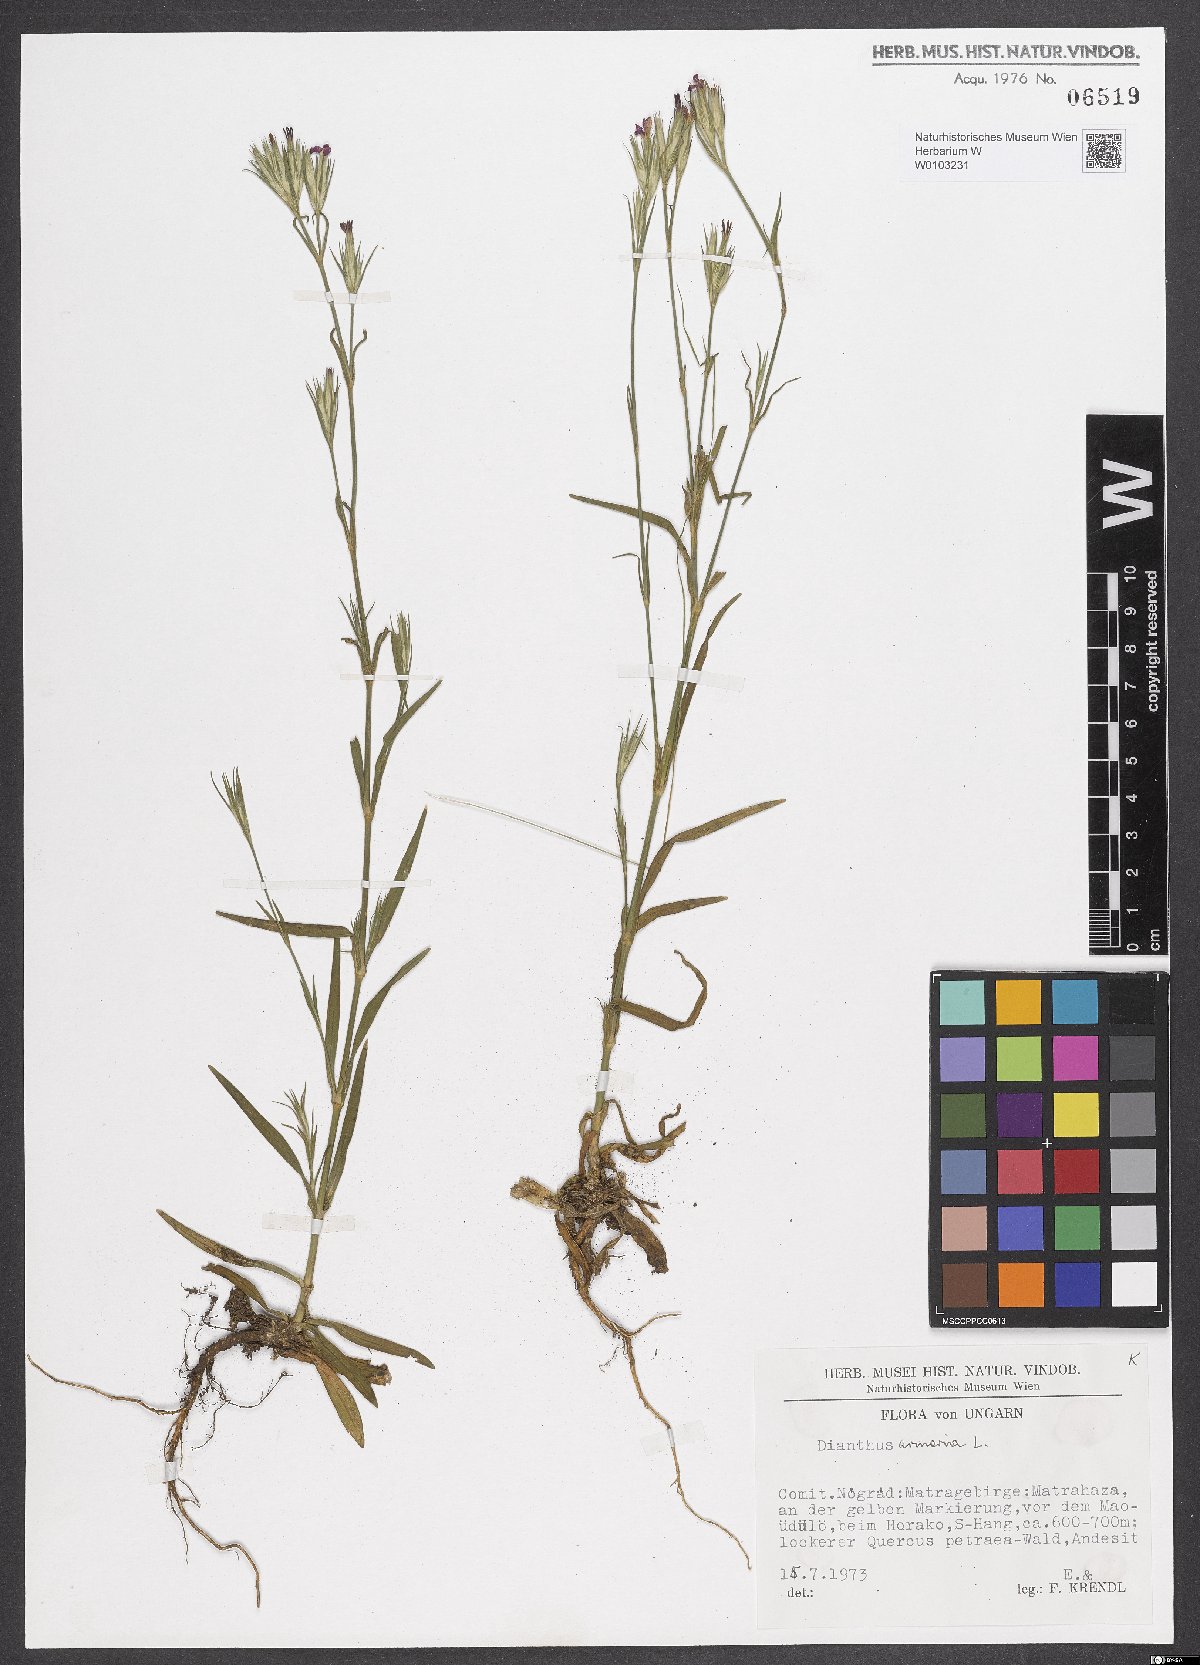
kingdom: Plantae
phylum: Tracheophyta
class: Magnoliopsida
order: Caryophyllales
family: Caryophyllaceae
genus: Dianthus
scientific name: Dianthus armeria
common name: Deptford pink
